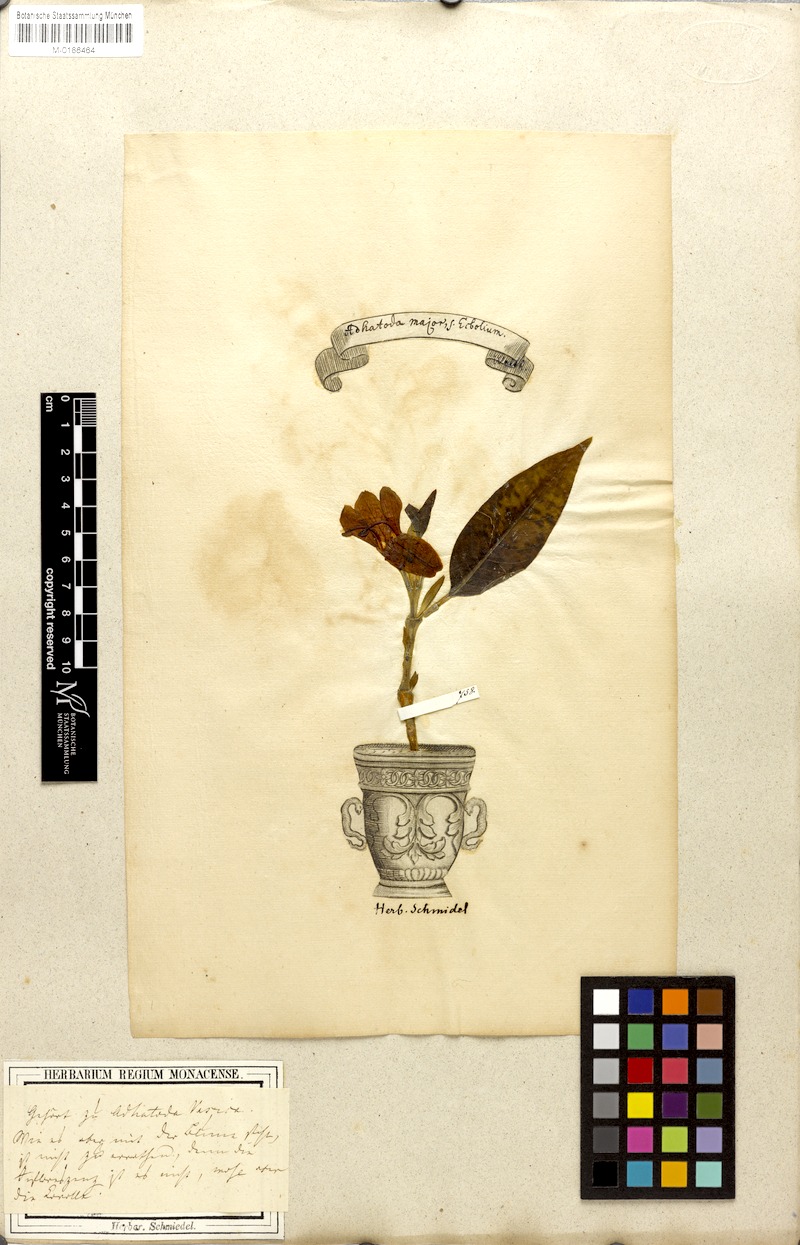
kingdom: Plantae
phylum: Tracheophyta
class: Magnoliopsida
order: Lamiales
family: Acanthaceae
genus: Justicia
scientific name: Justicia adhatoda
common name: Malabar nut
